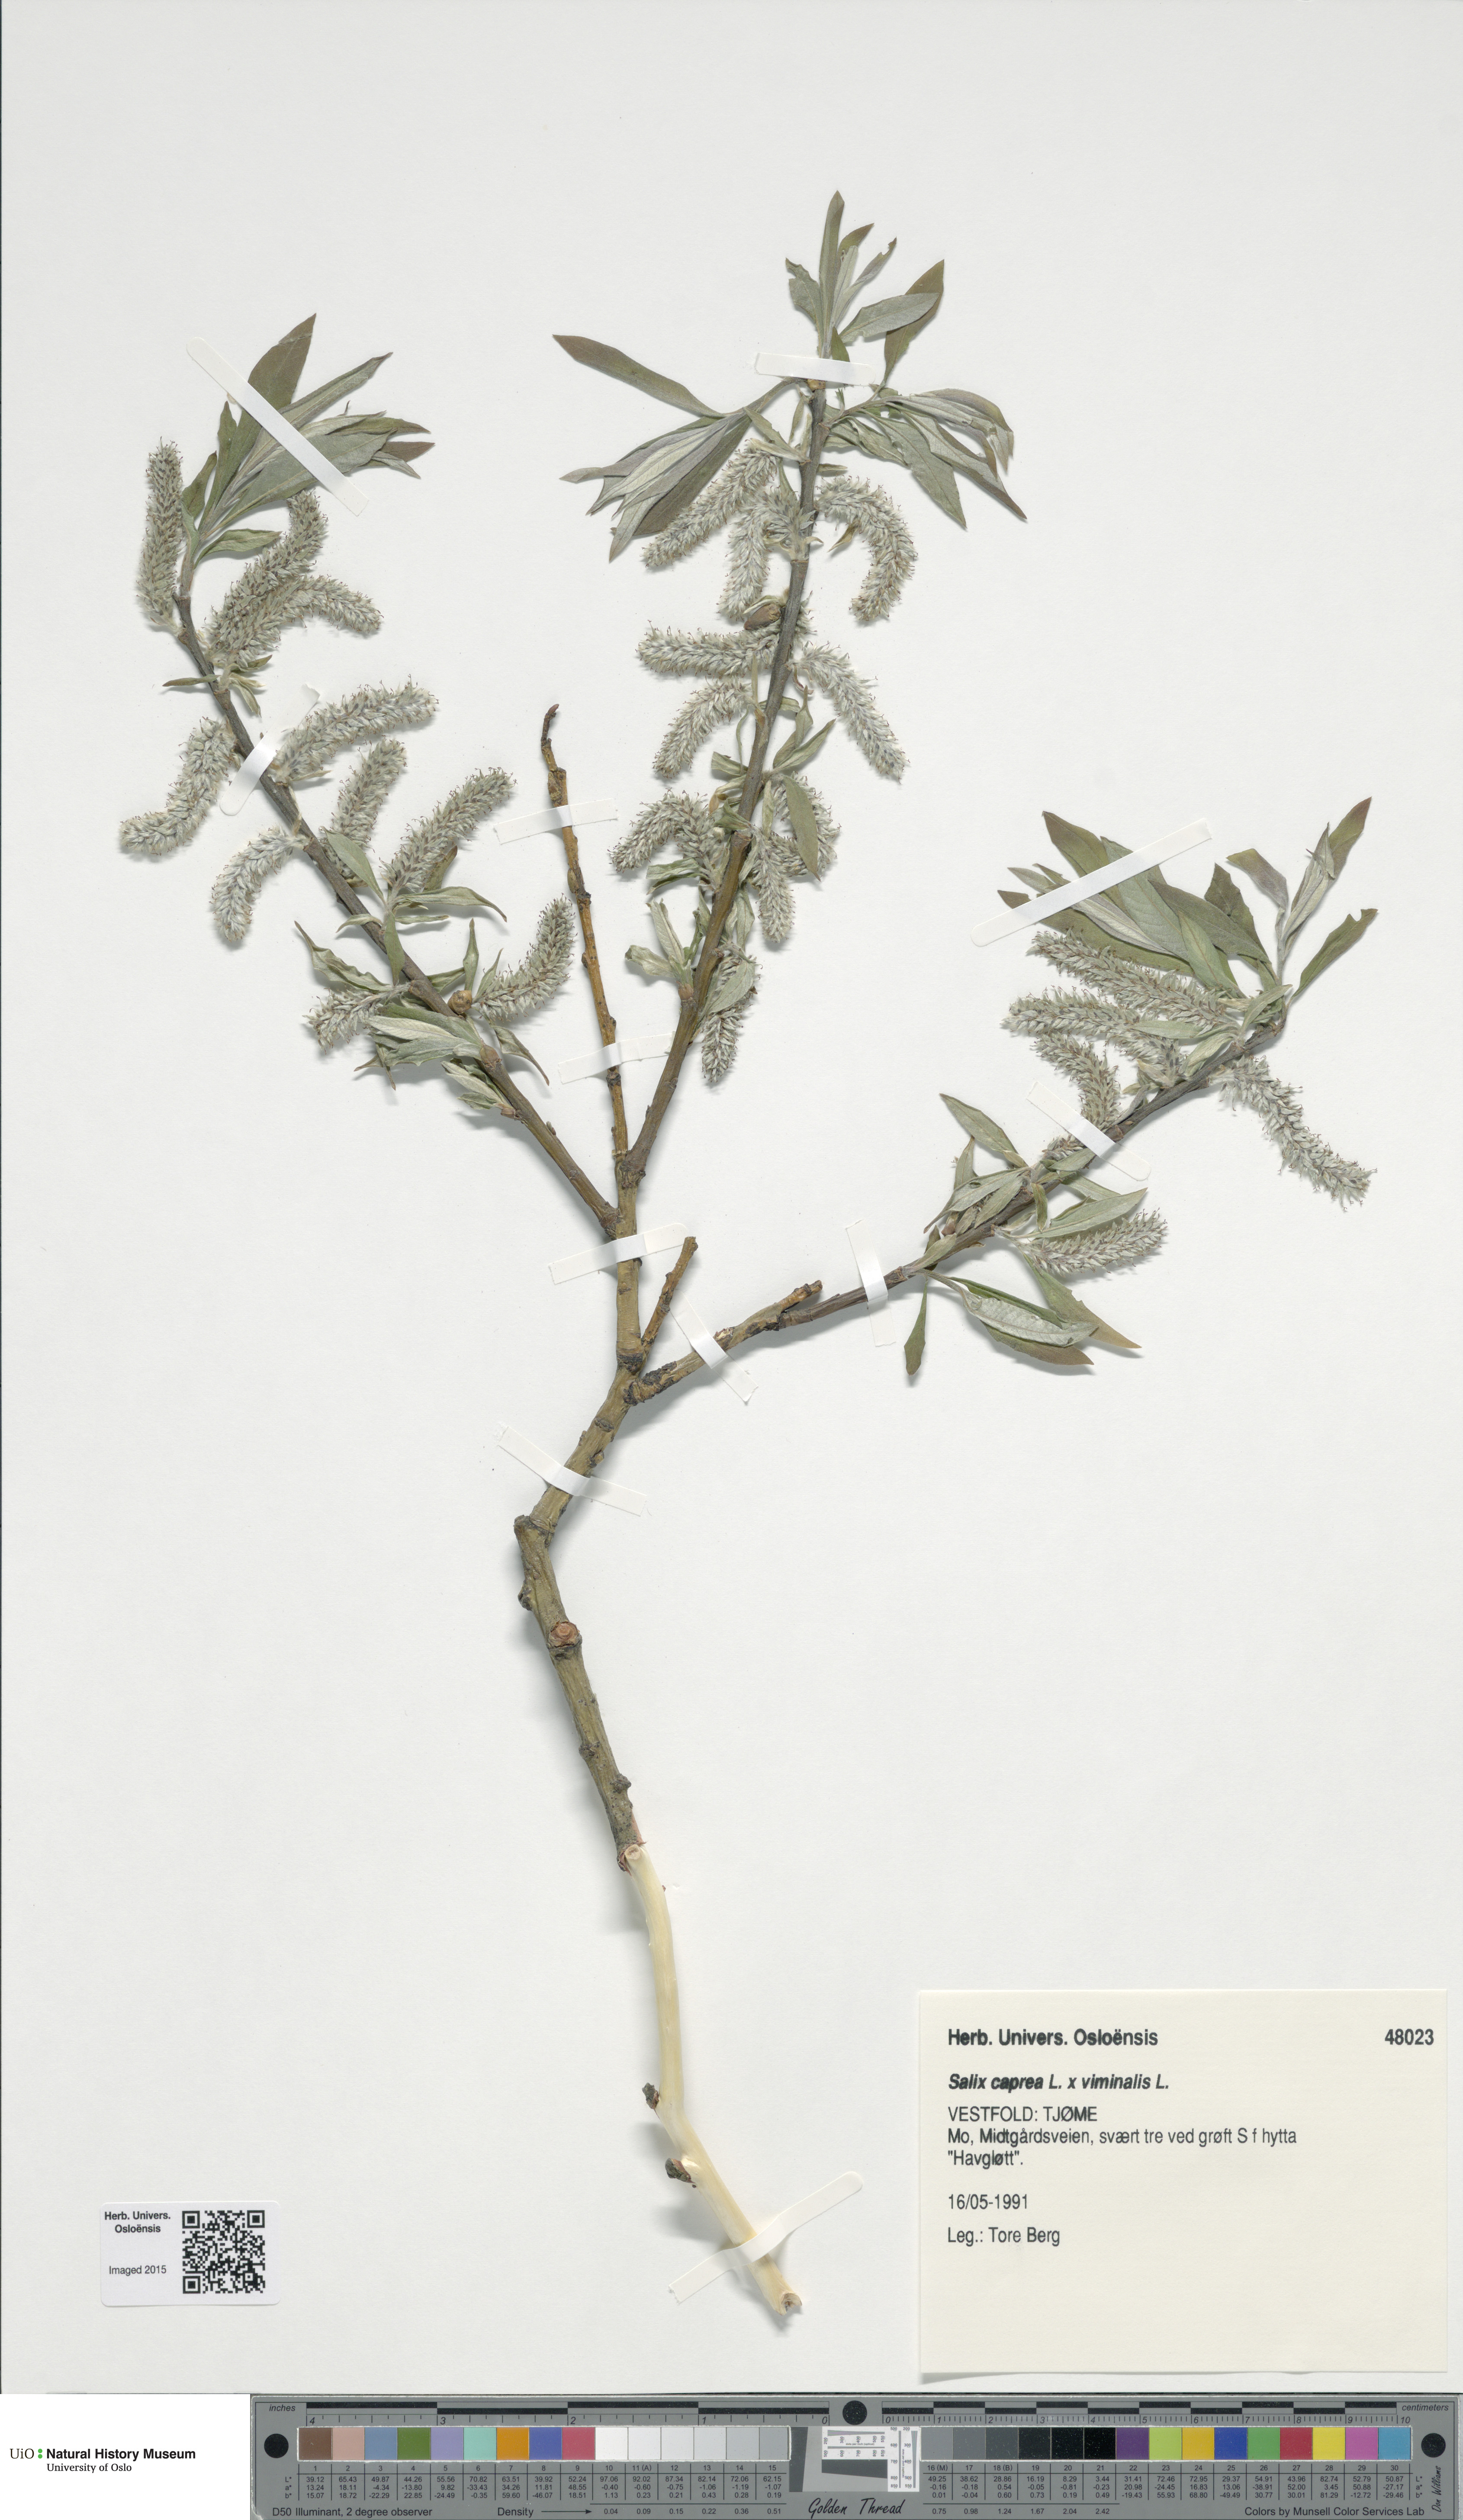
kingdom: Plantae
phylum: Tracheophyta
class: Magnoliopsida
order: Malpighiales
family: Salicaceae
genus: Salix
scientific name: Salix
